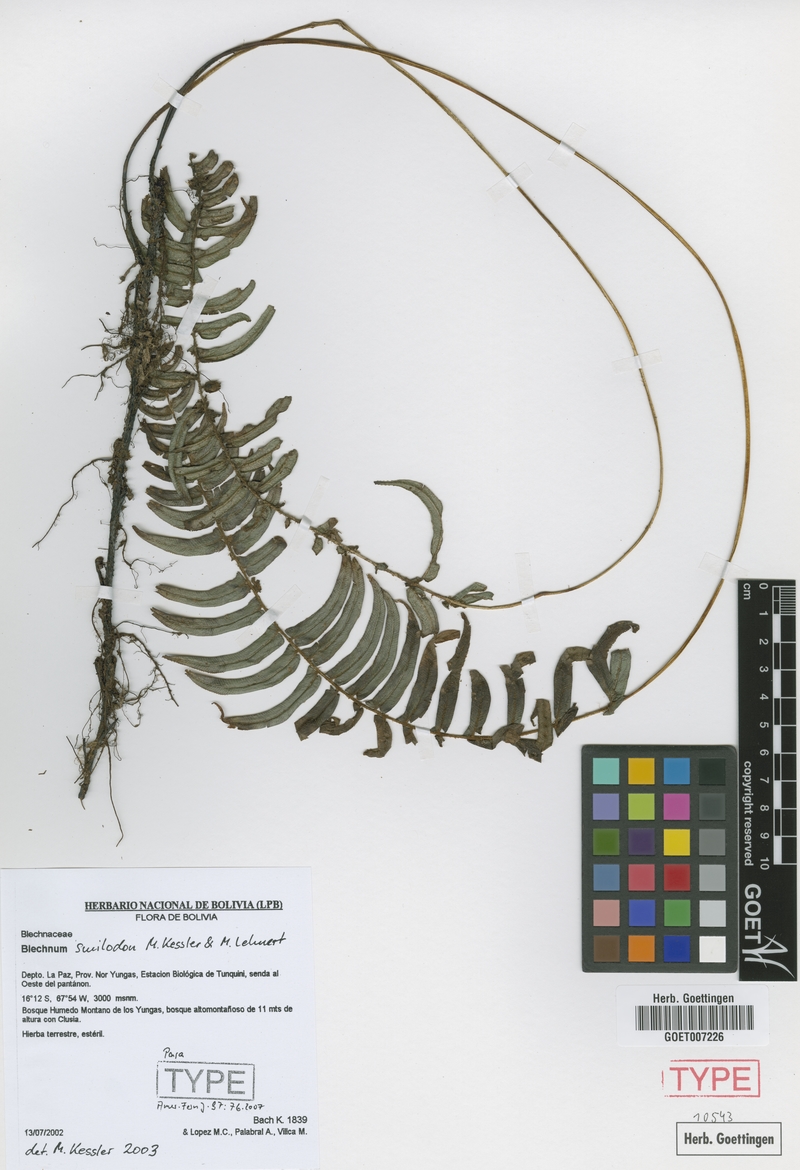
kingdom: Plantae
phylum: Tracheophyta
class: Polypodiopsida
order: Polypodiales
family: Blechnaceae
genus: Parablechnum
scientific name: Parablechnum smilodon
